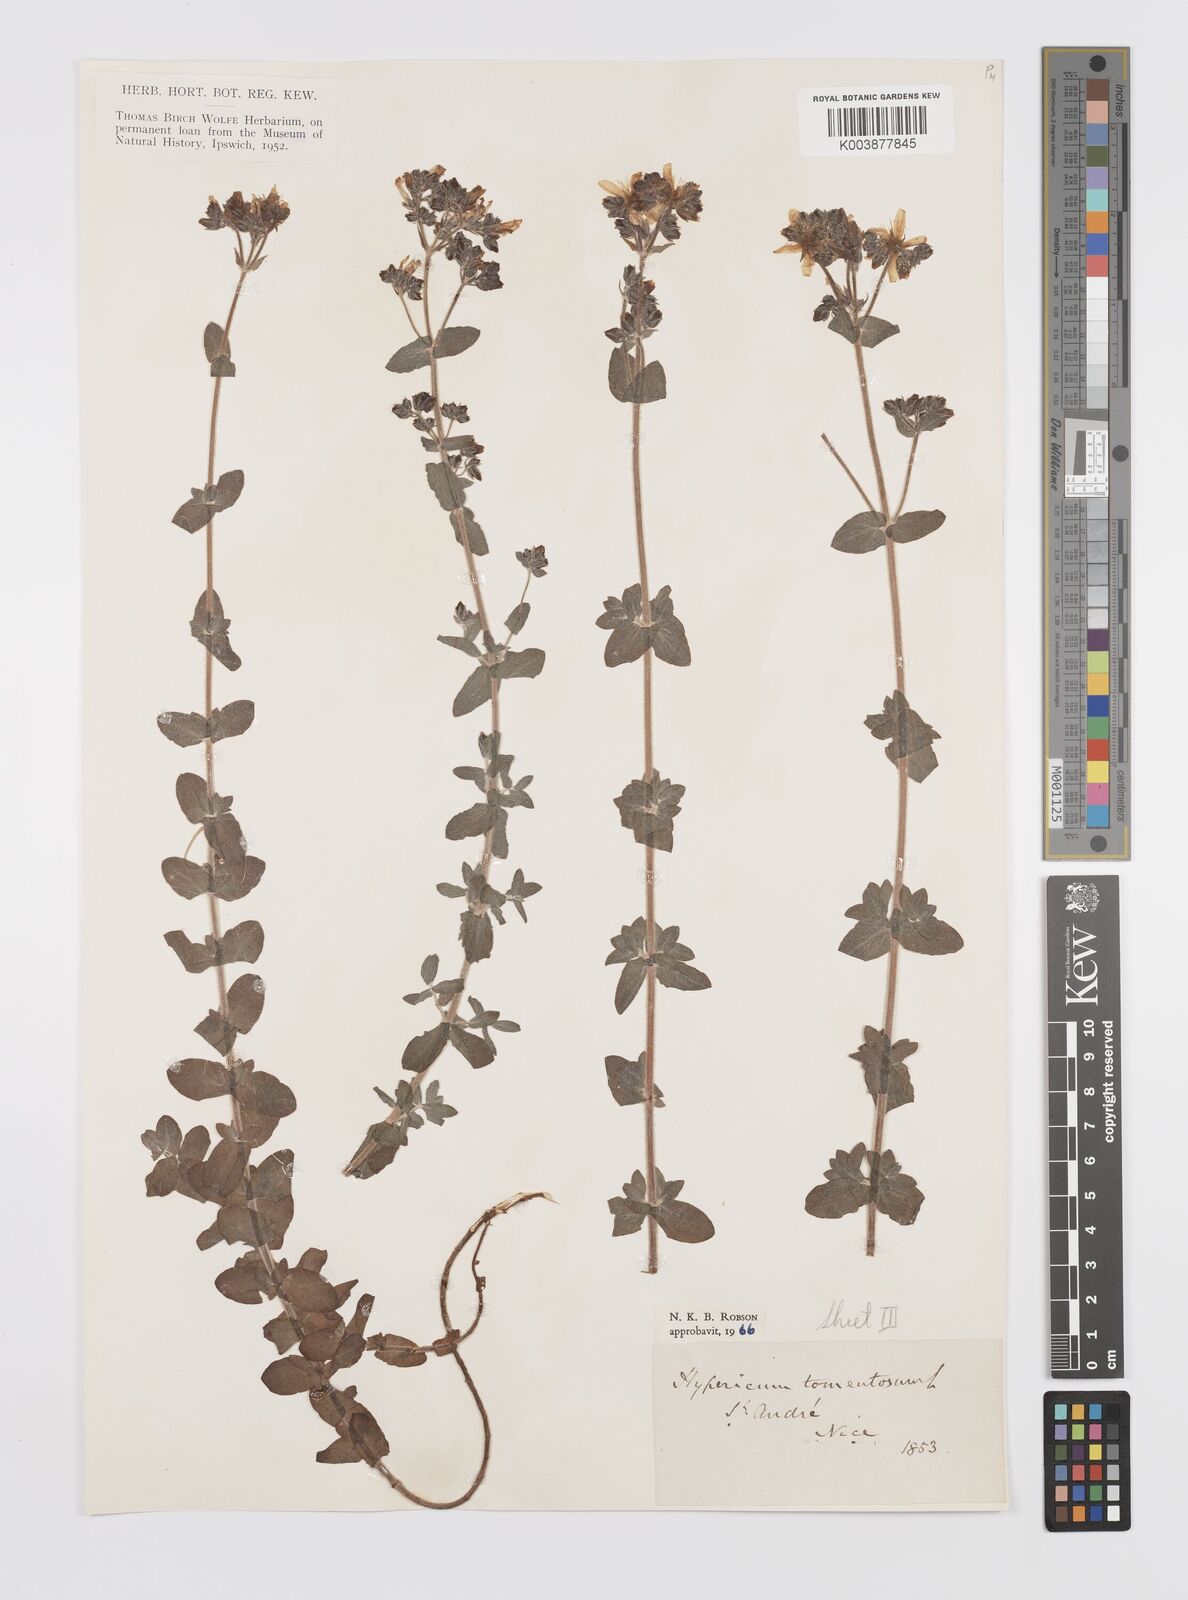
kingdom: Plantae
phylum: Tracheophyta
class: Magnoliopsida
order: Malpighiales
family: Hypericaceae
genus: Hypericum
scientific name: Hypericum tomentosum
